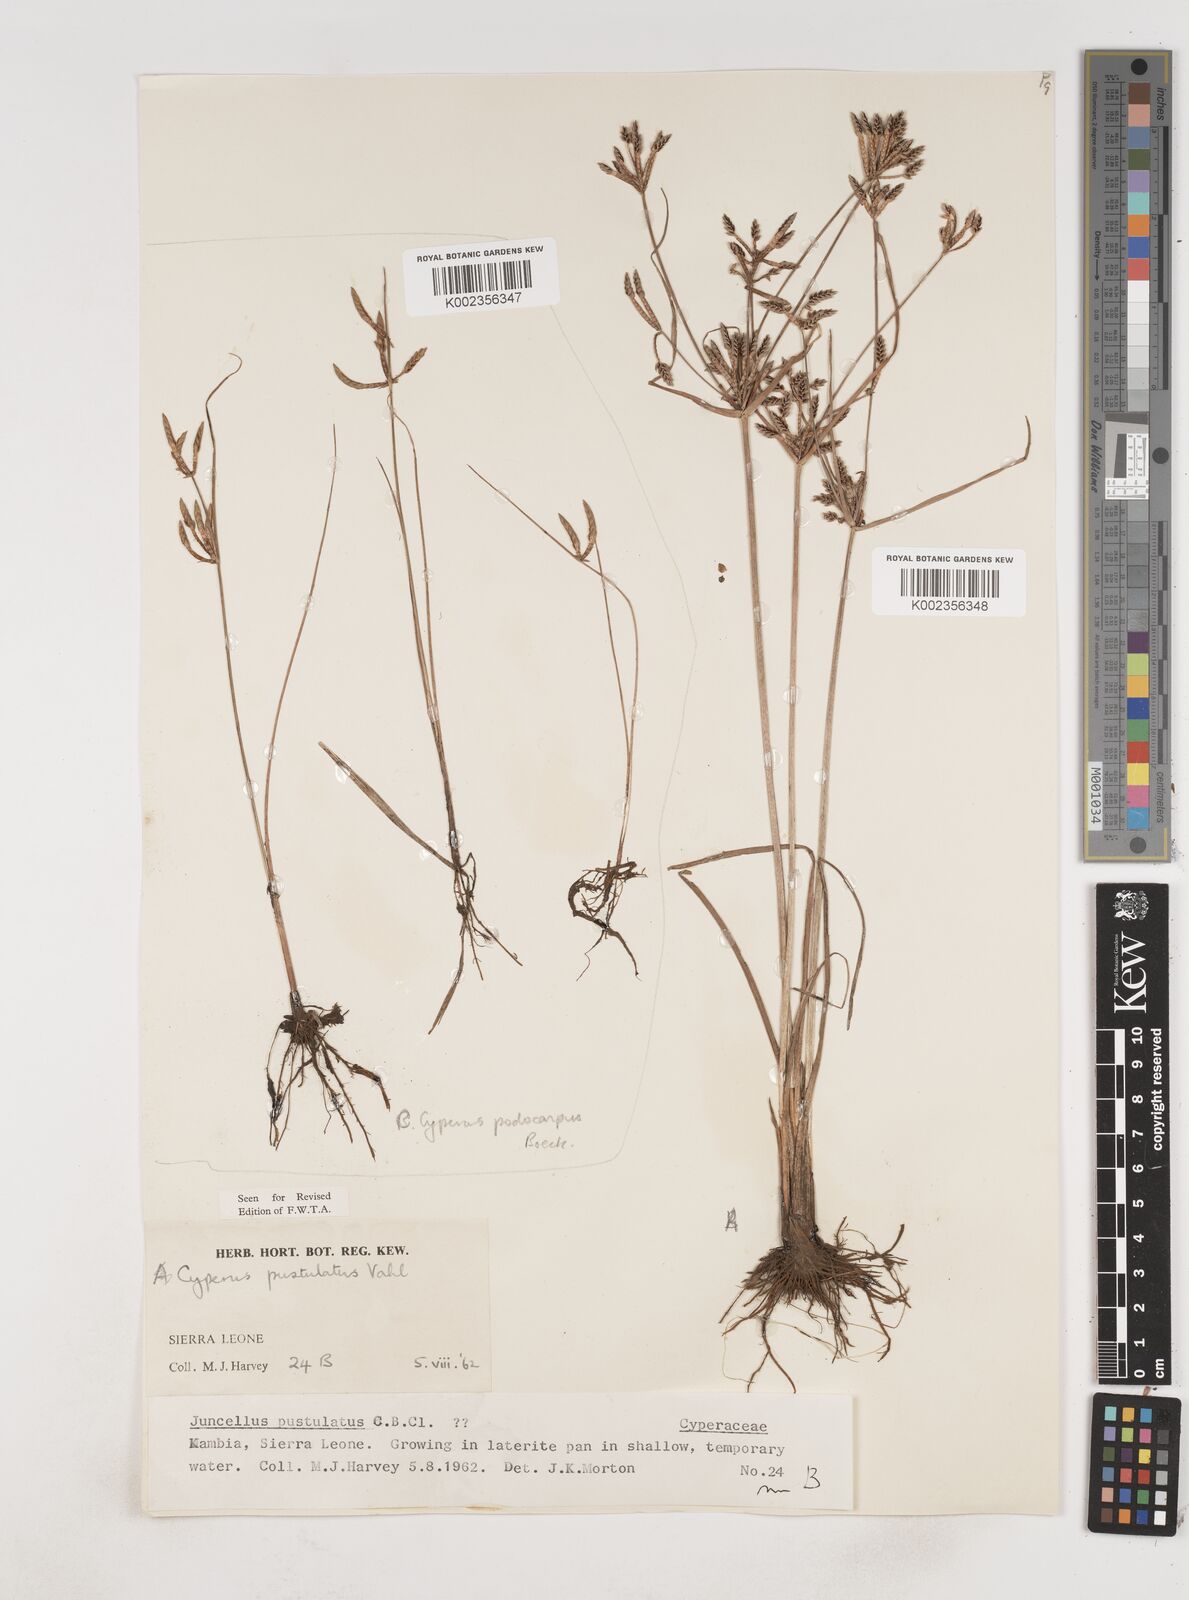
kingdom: Plantae
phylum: Tracheophyta
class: Liliopsida
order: Poales
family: Cyperaceae
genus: Cyperus
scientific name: Cyperus pustulatus
